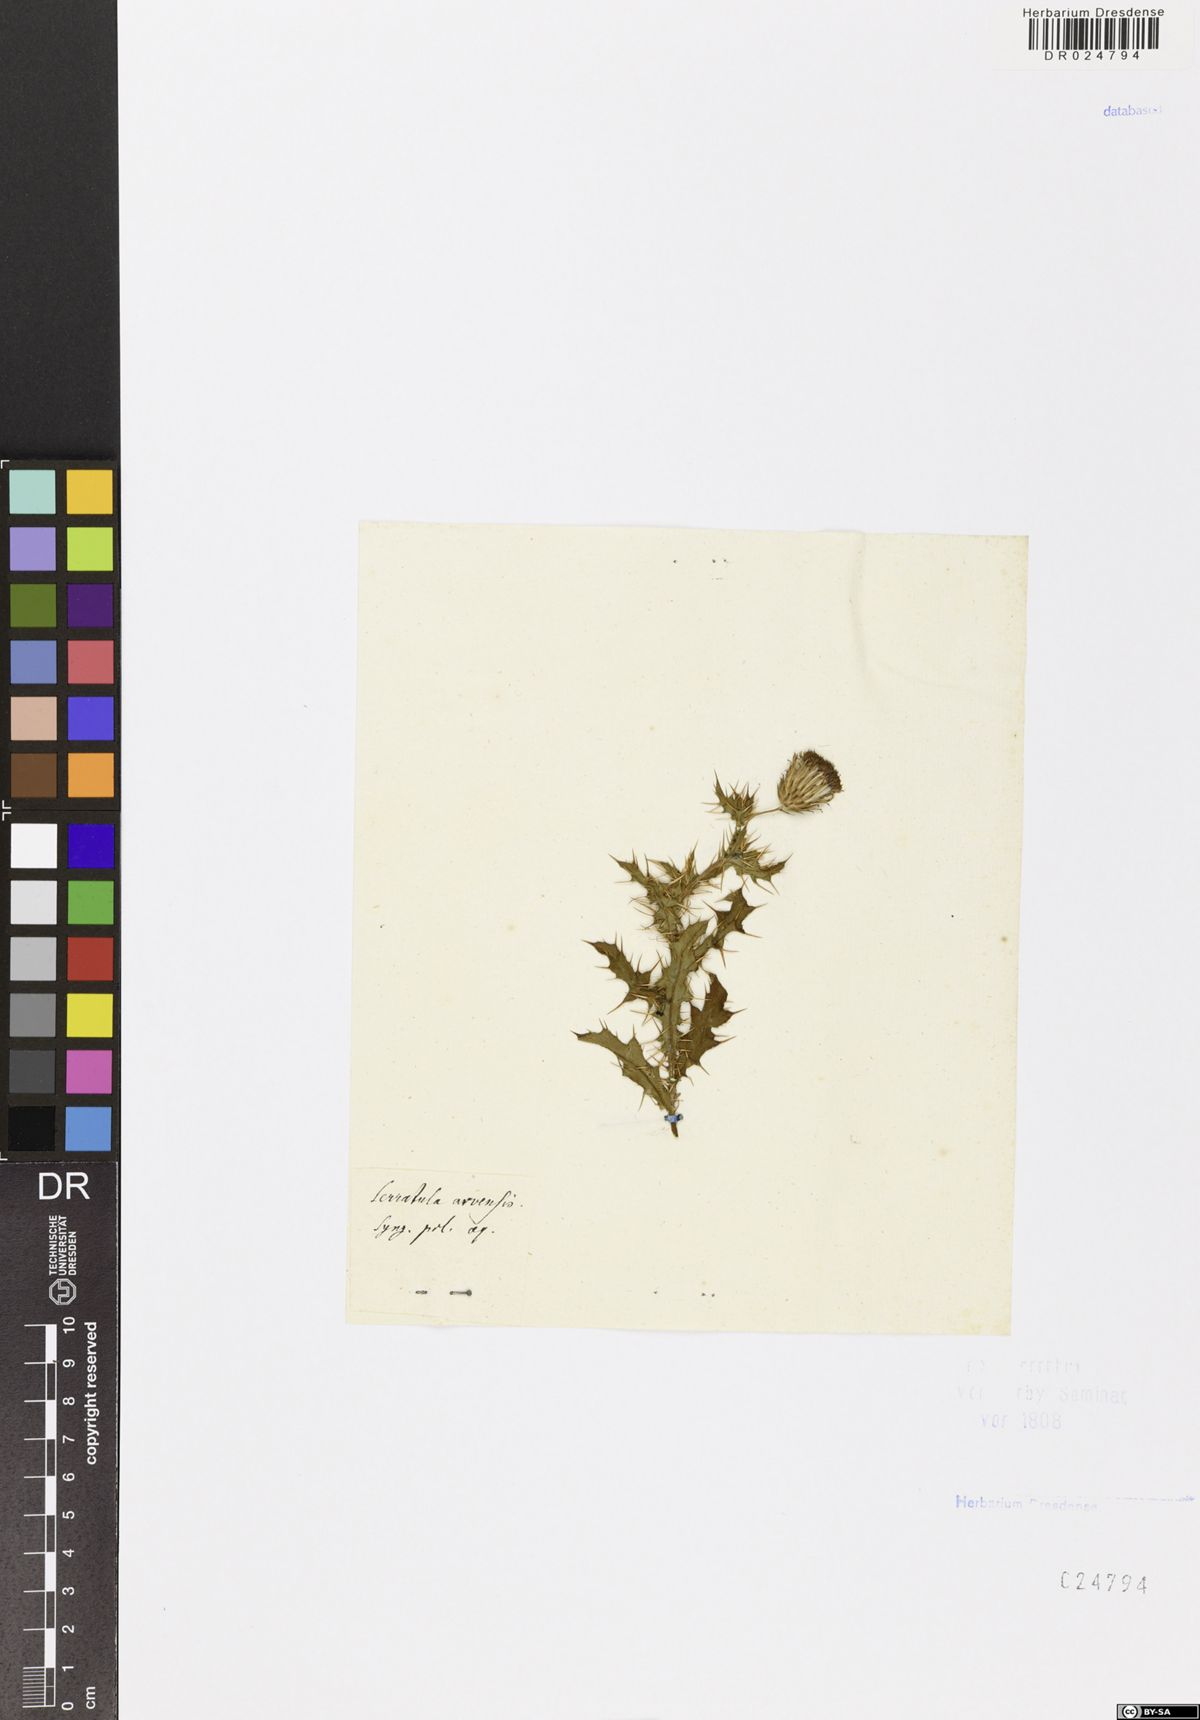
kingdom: Plantae
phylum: Tracheophyta
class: Magnoliopsida
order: Asterales
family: Asteraceae
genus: Cirsium
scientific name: Cirsium arvense
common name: Creeping thistle
